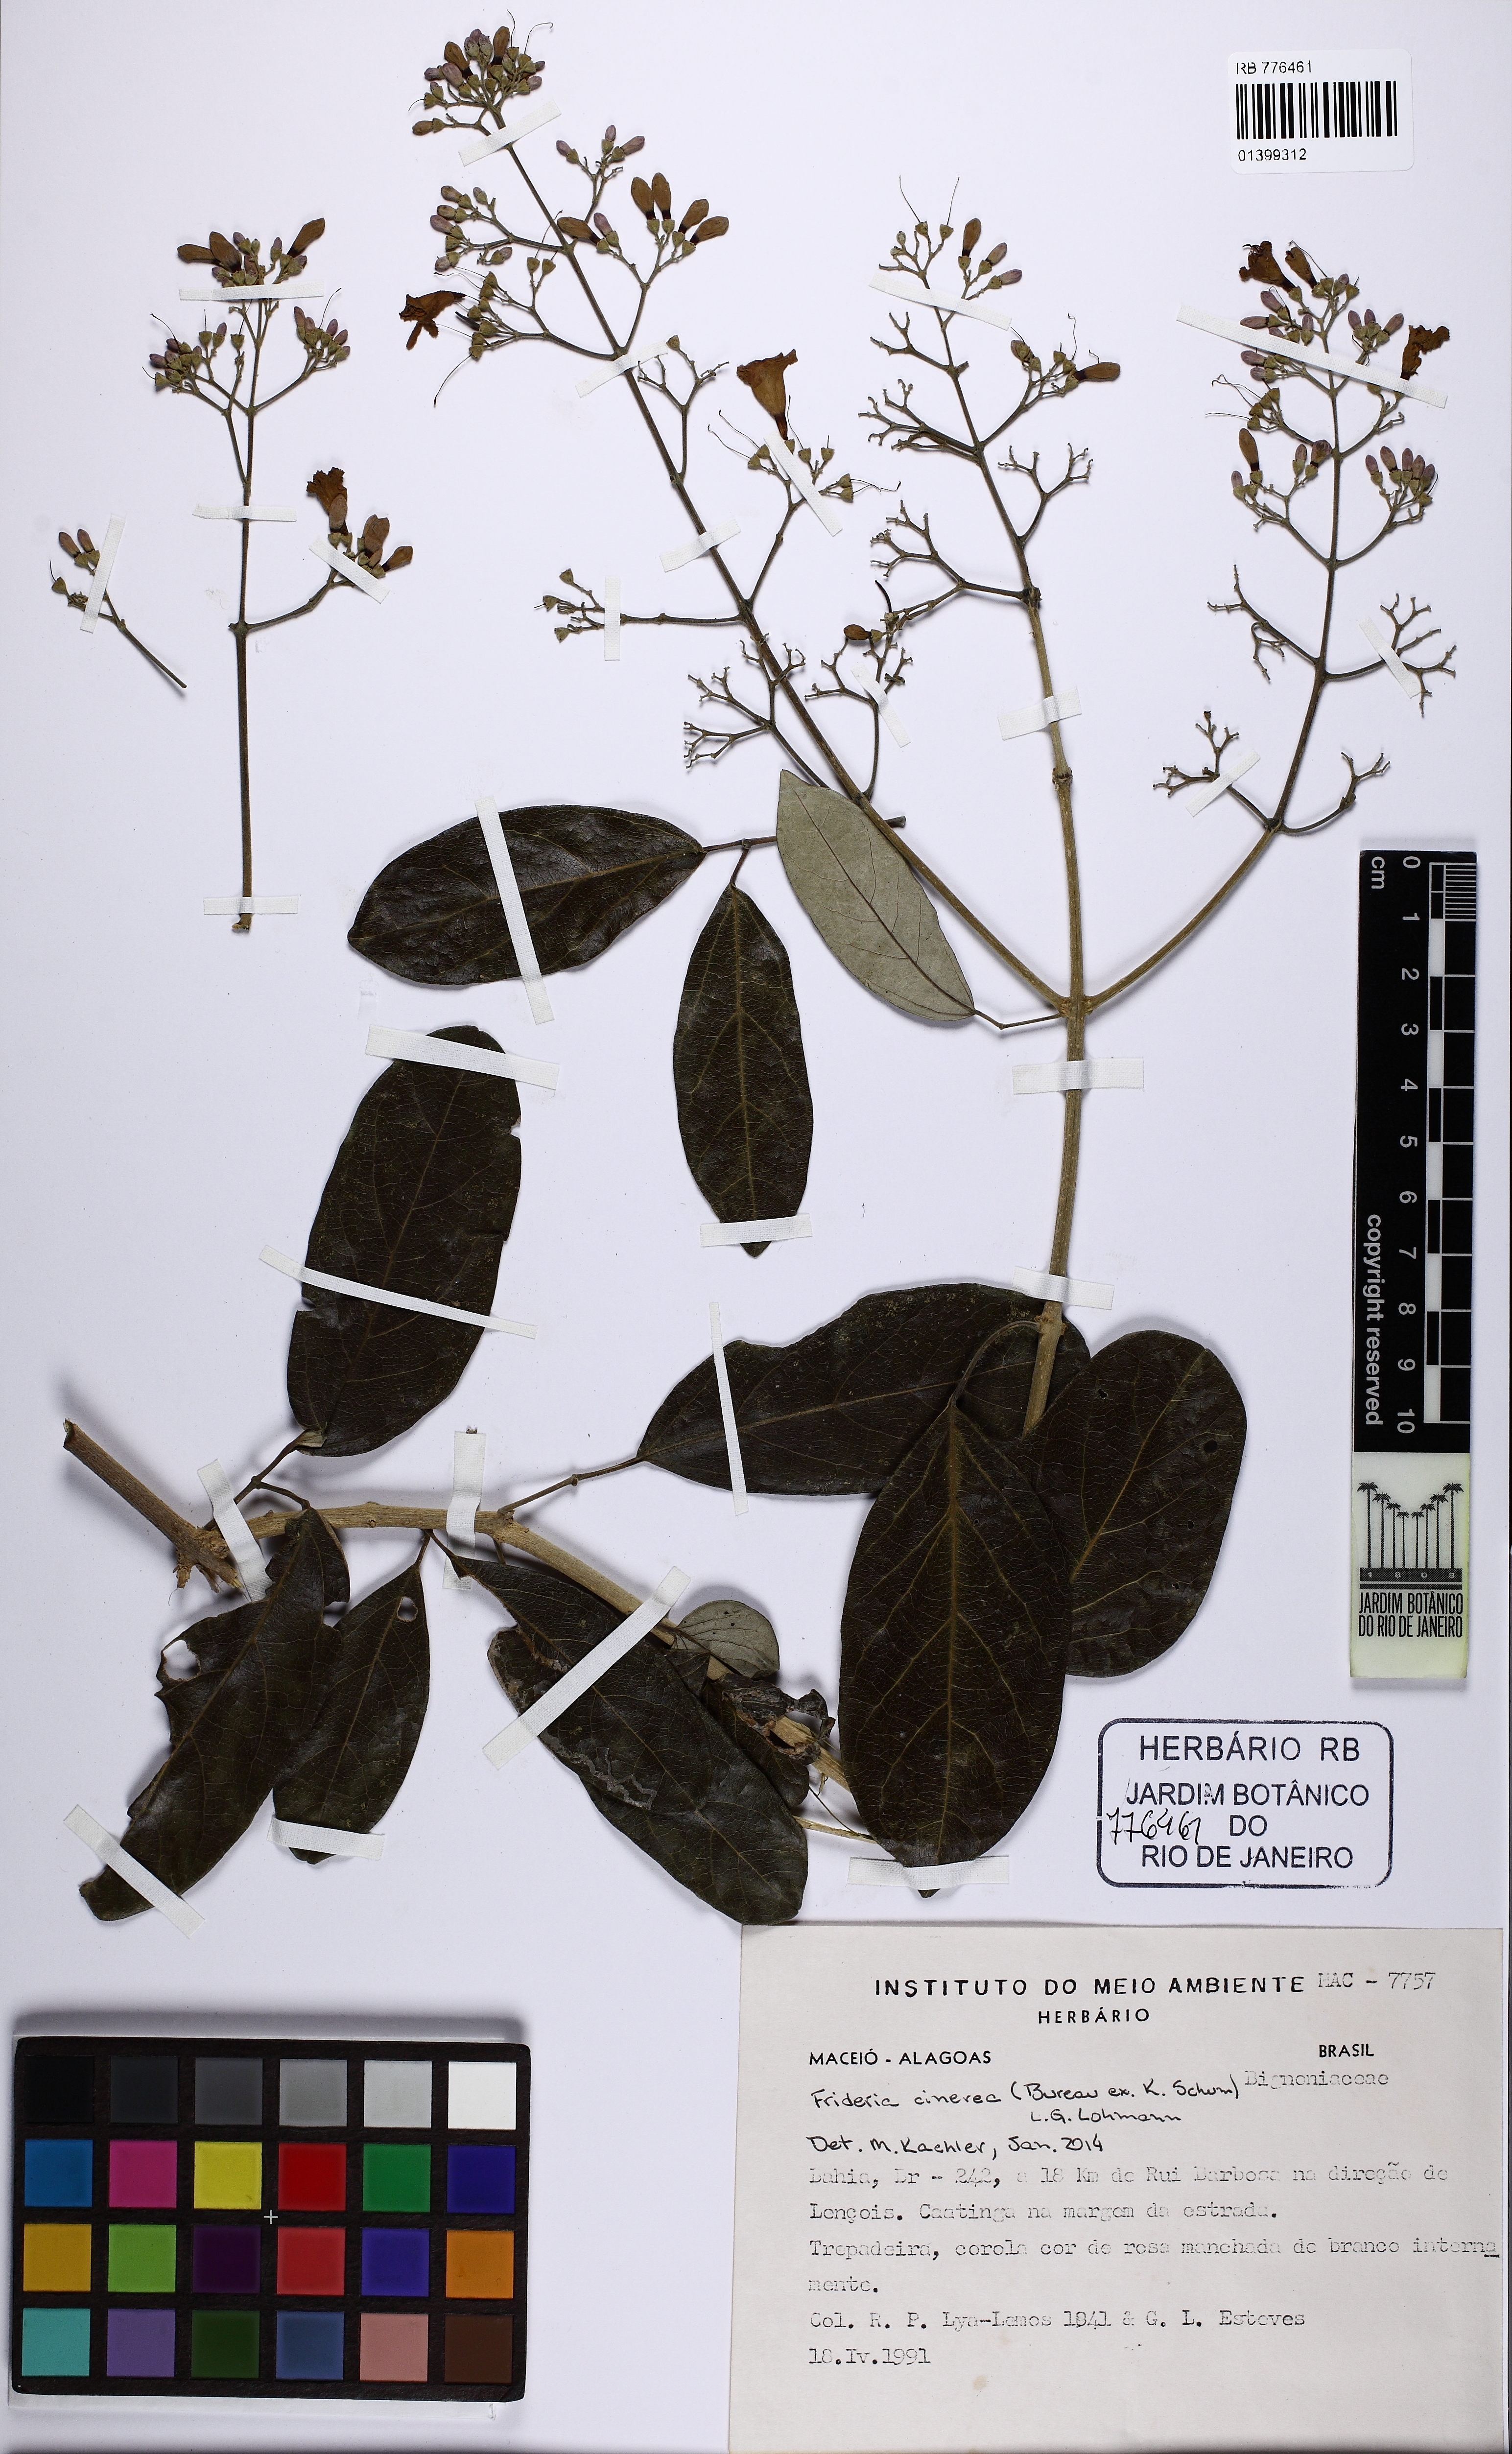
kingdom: Plantae
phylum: Tracheophyta
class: Magnoliopsida
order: Lamiales
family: Bignoniaceae
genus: Fridericia
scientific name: Fridericia cinerea
